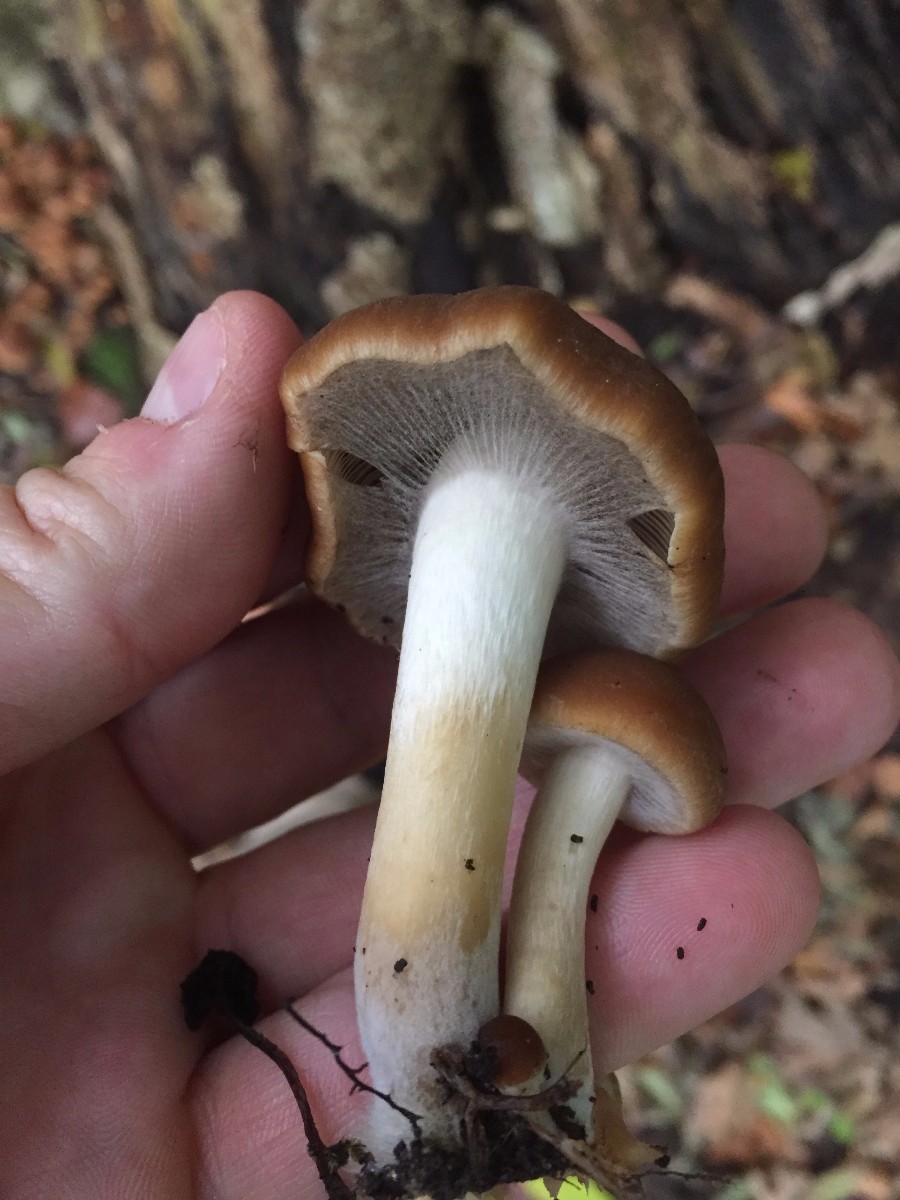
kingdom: Fungi
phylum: Basidiomycota
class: Agaricomycetes
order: Agaricales
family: Psathyrellaceae
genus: Psathyrella
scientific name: Psathyrella piluliformis
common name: lysstokket mørkhat
